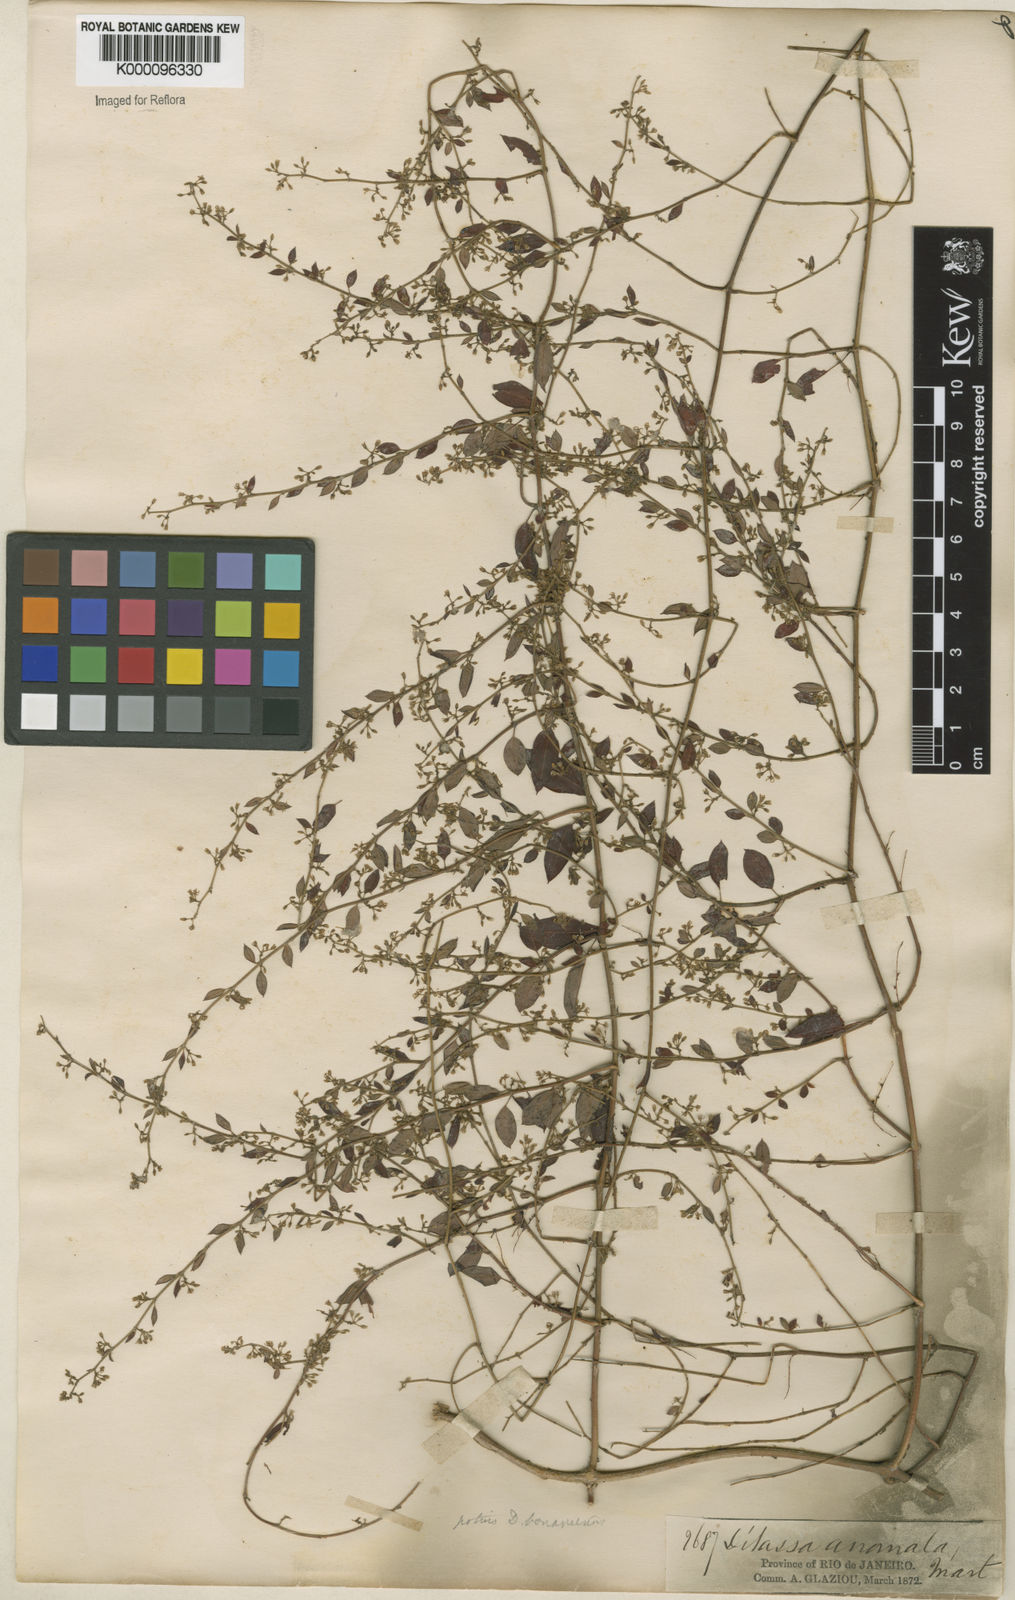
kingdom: Plantae
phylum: Tracheophyta
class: Magnoliopsida
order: Gentianales
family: Apocynaceae
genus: Metastelma
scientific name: Metastelma burchellii
